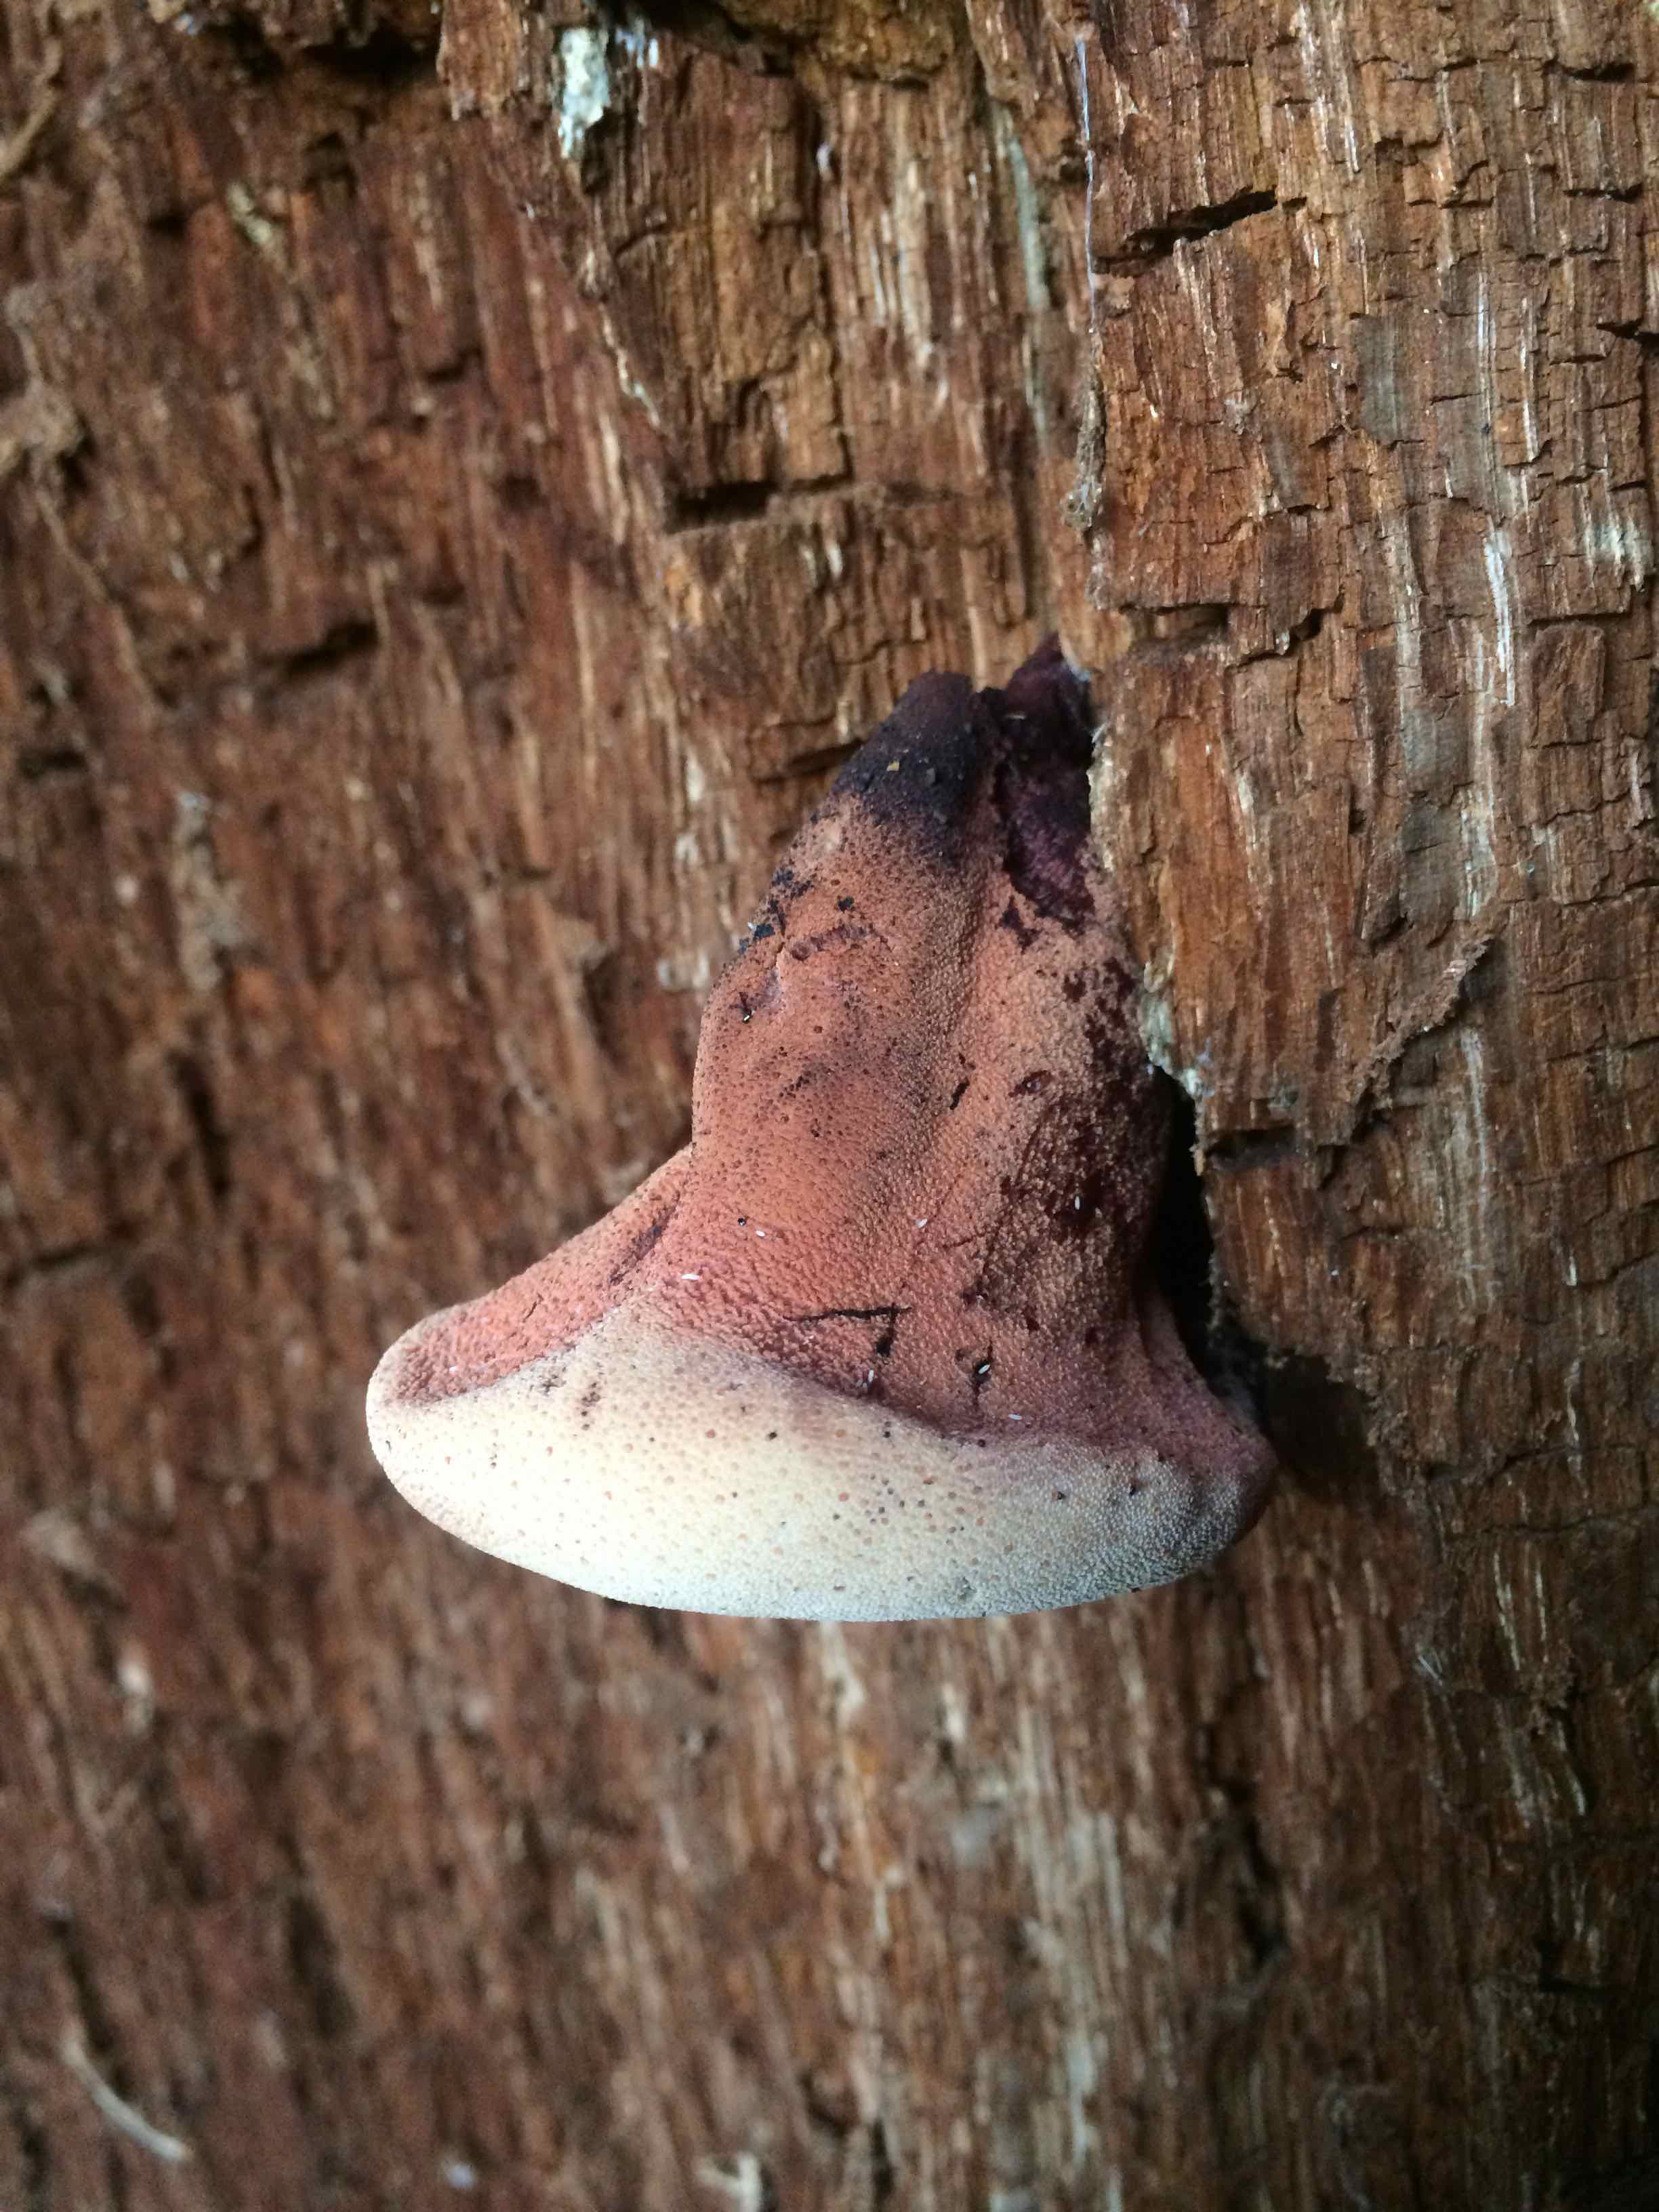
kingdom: Fungi
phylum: Basidiomycota
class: Agaricomycetes
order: Agaricales
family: Fistulinaceae
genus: Fistulina
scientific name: Fistulina hepatica
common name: oksetunge
